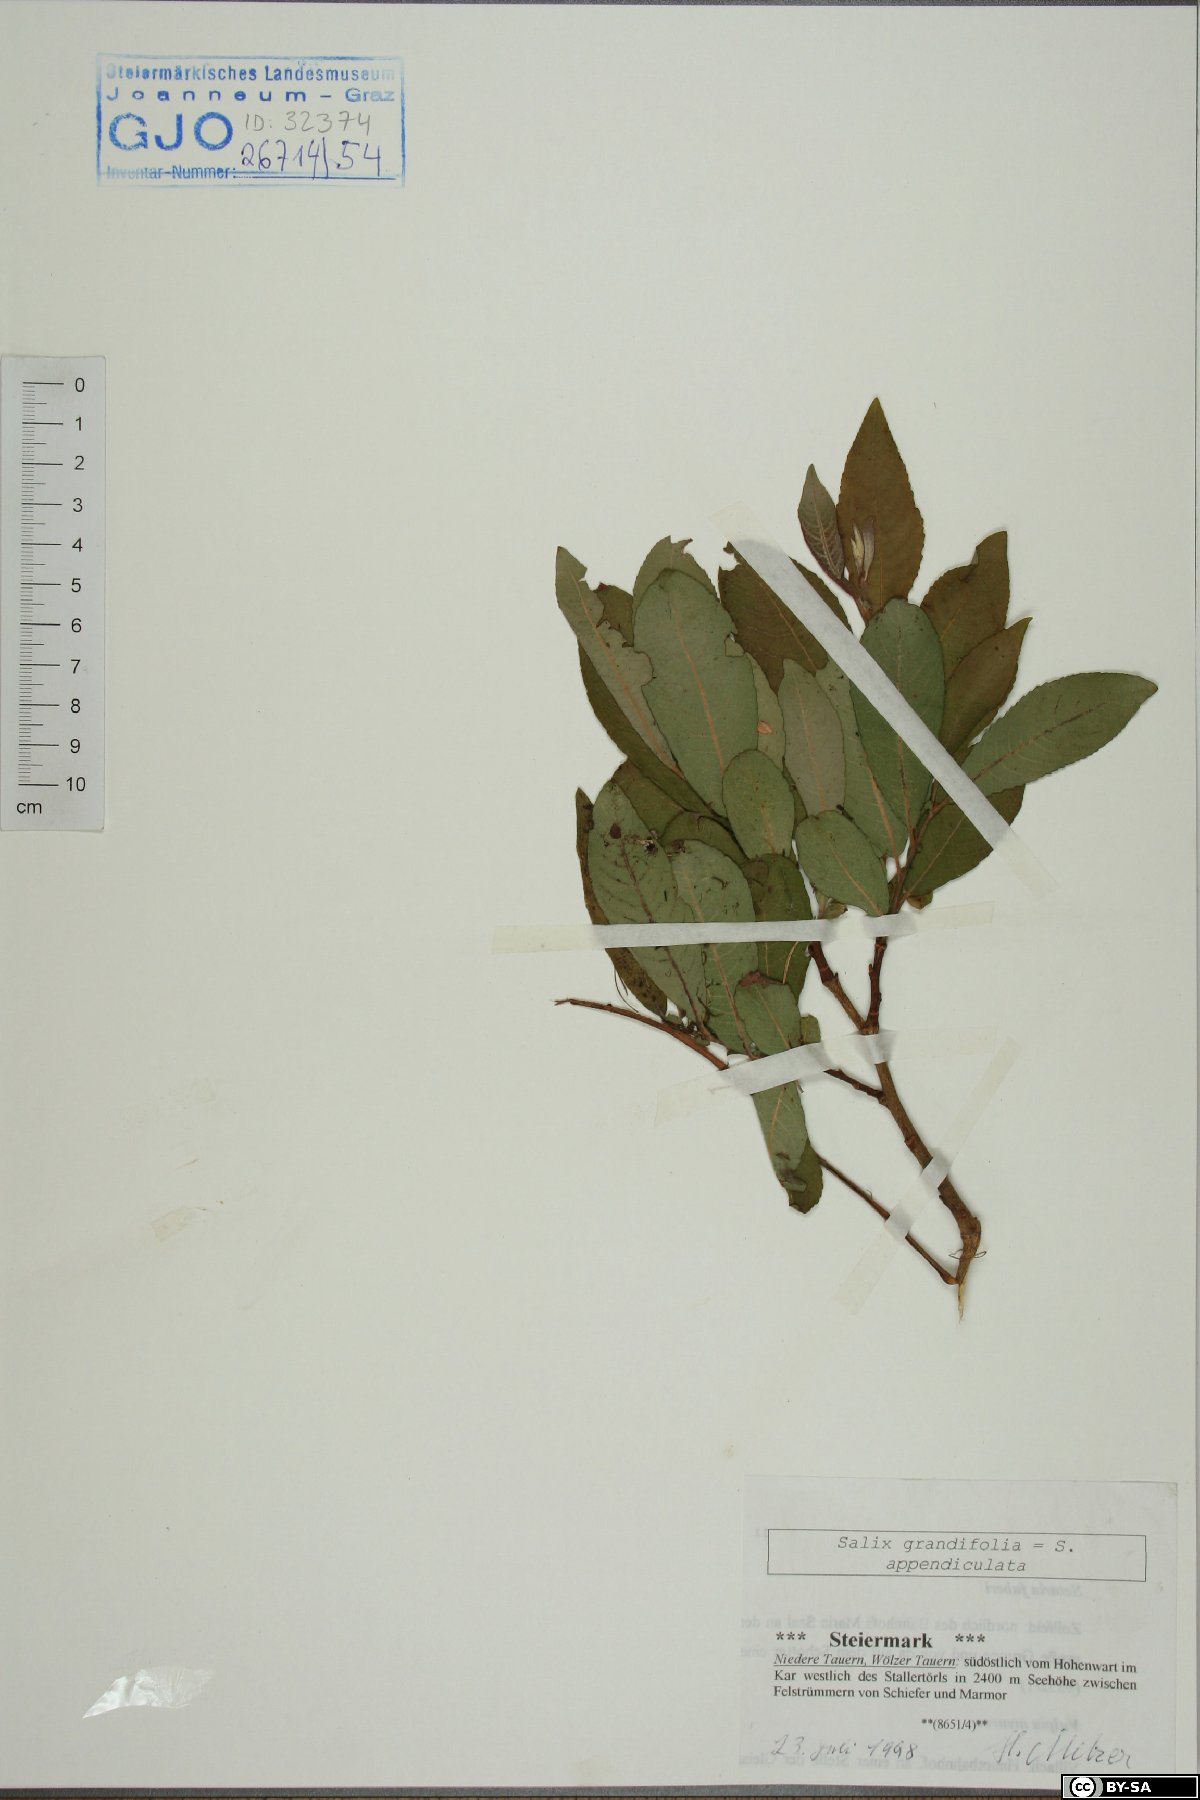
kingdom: Plantae
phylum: Tracheophyta
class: Magnoliopsida
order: Malpighiales
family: Salicaceae
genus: Salix
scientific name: Salix appendiculata
